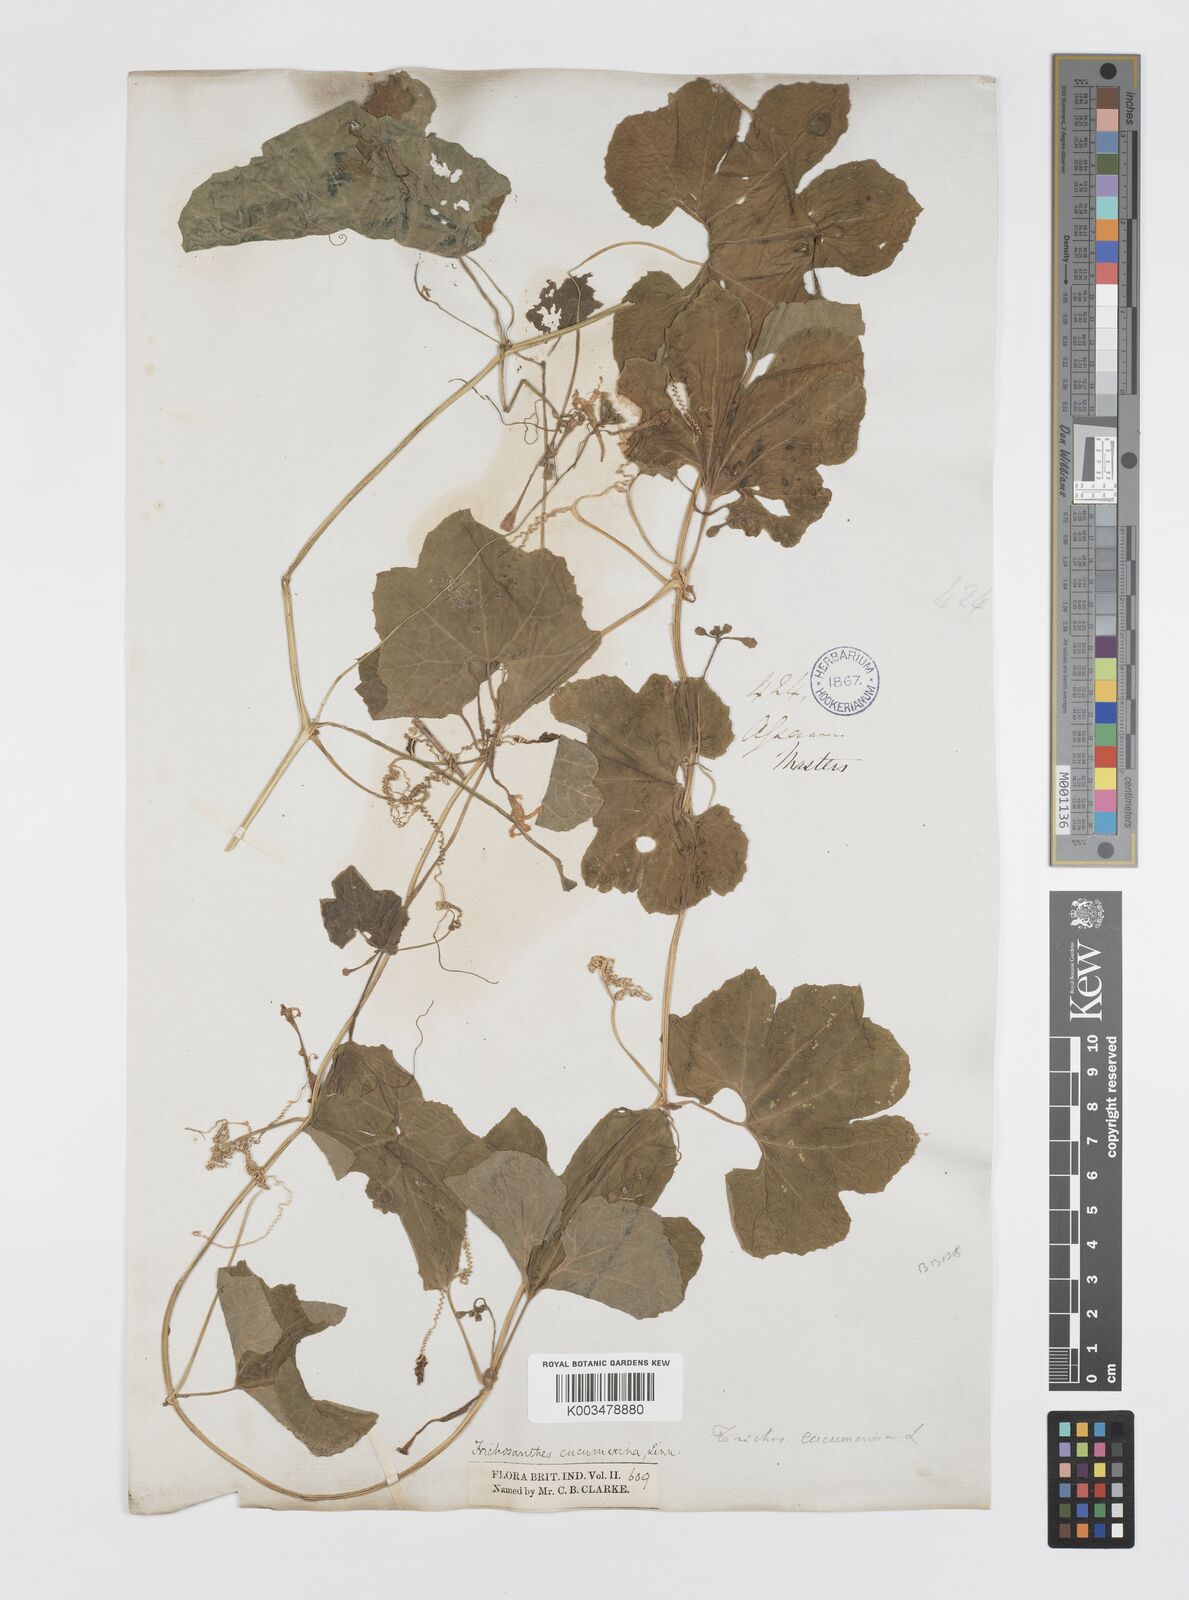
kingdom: Plantae
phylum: Tracheophyta
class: Magnoliopsida
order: Cucurbitales
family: Cucurbitaceae
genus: Trichosanthes
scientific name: Trichosanthes cucumerina
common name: Snakegourd
